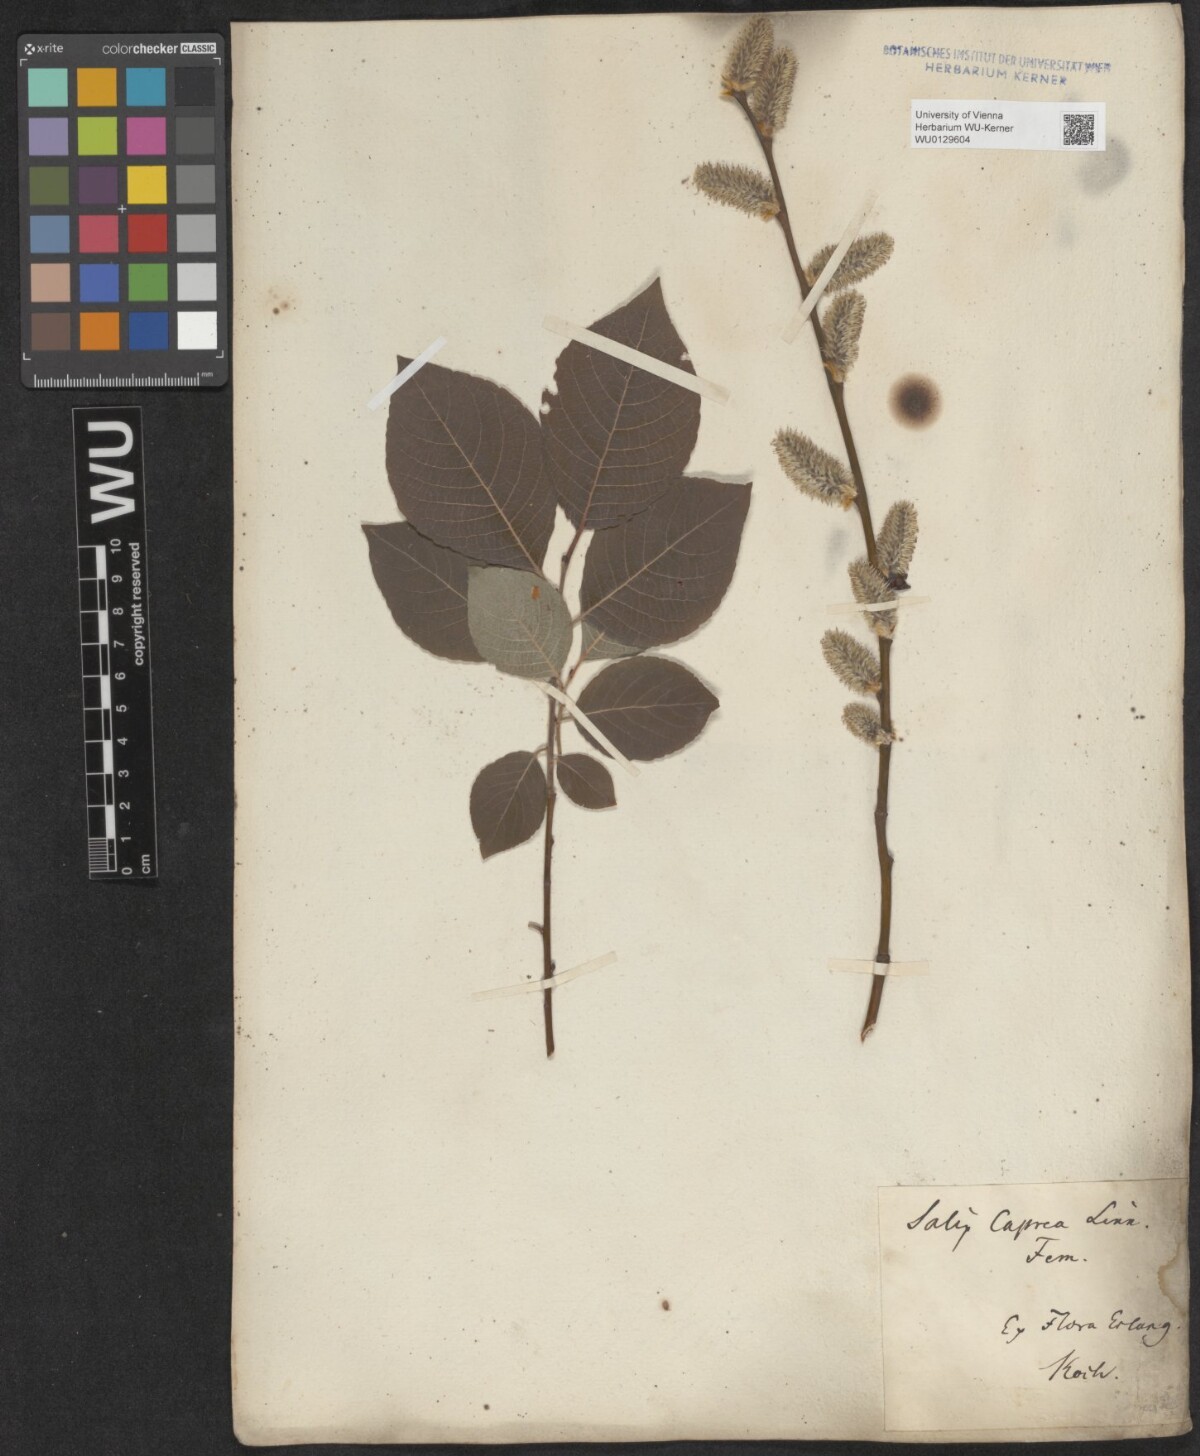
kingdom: Plantae
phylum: Tracheophyta
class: Magnoliopsida
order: Malpighiales
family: Salicaceae
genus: Salix
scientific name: Salix caprea
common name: Goat willow
